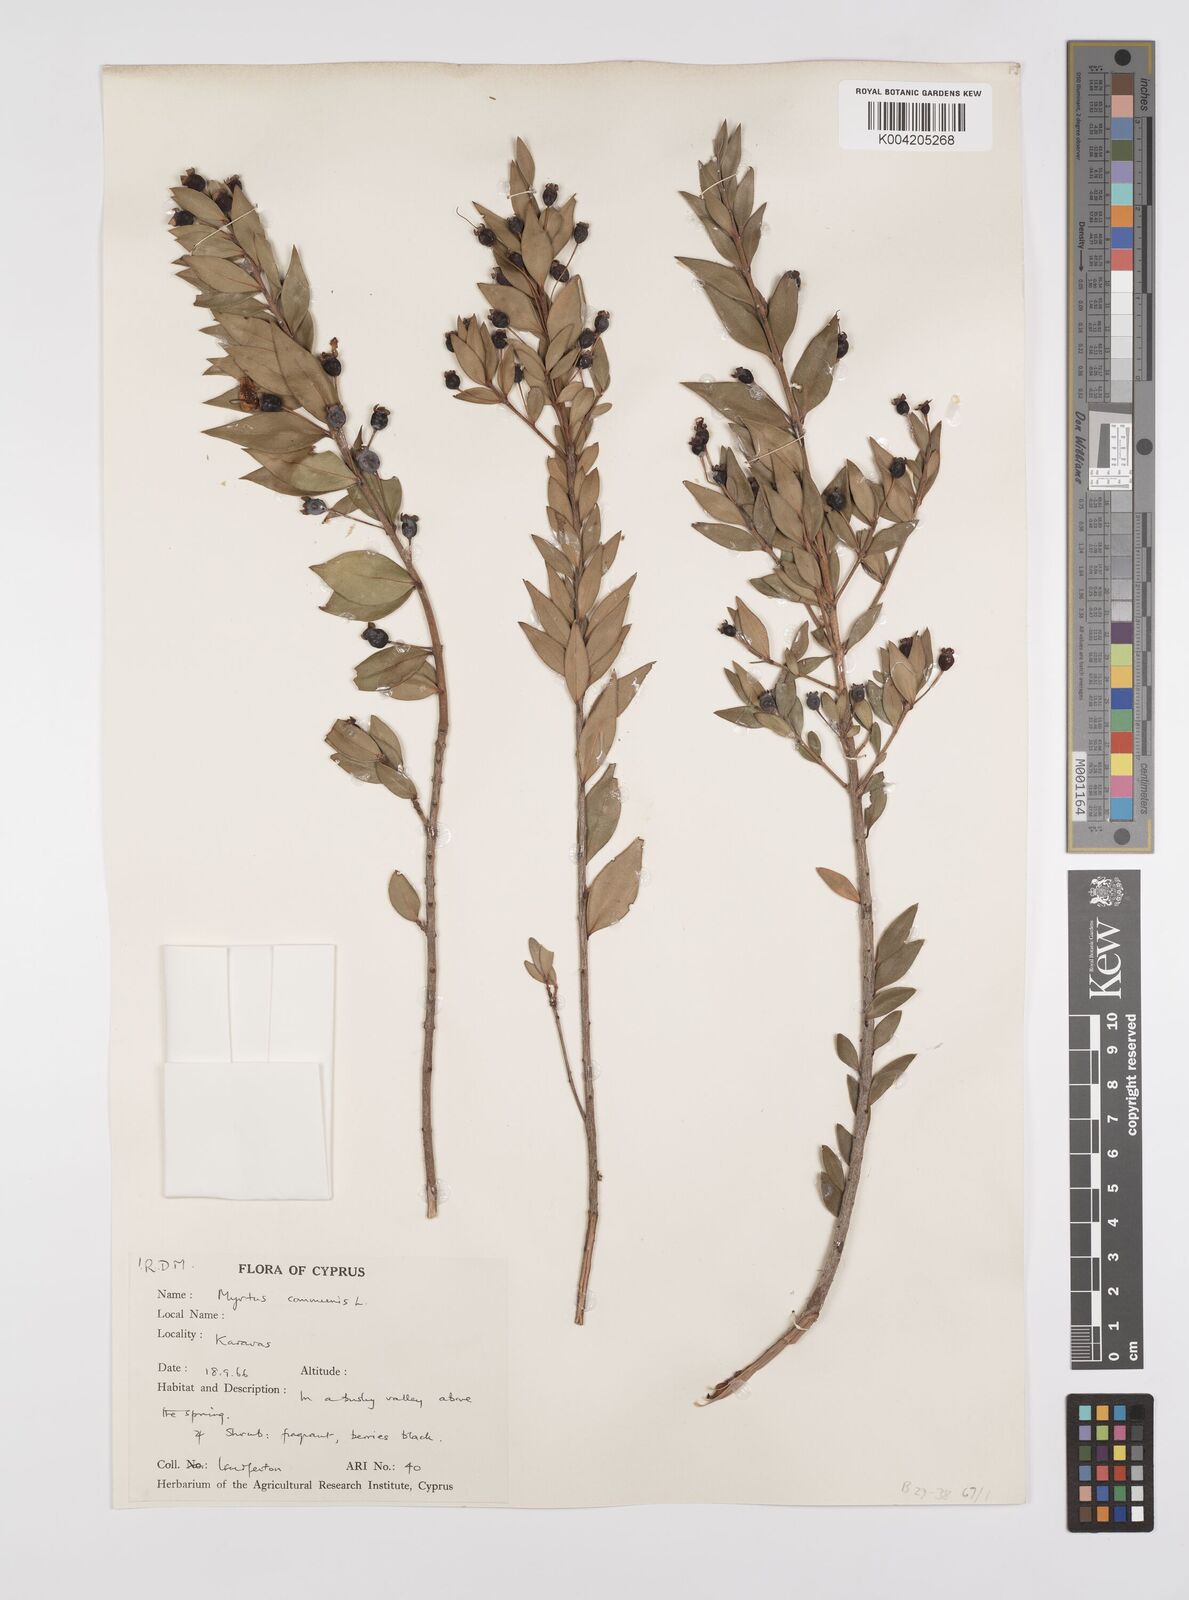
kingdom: Plantae
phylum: Tracheophyta
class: Magnoliopsida
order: Myrtales
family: Myrtaceae
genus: Myrtus
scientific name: Myrtus communis
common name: Myrtle
